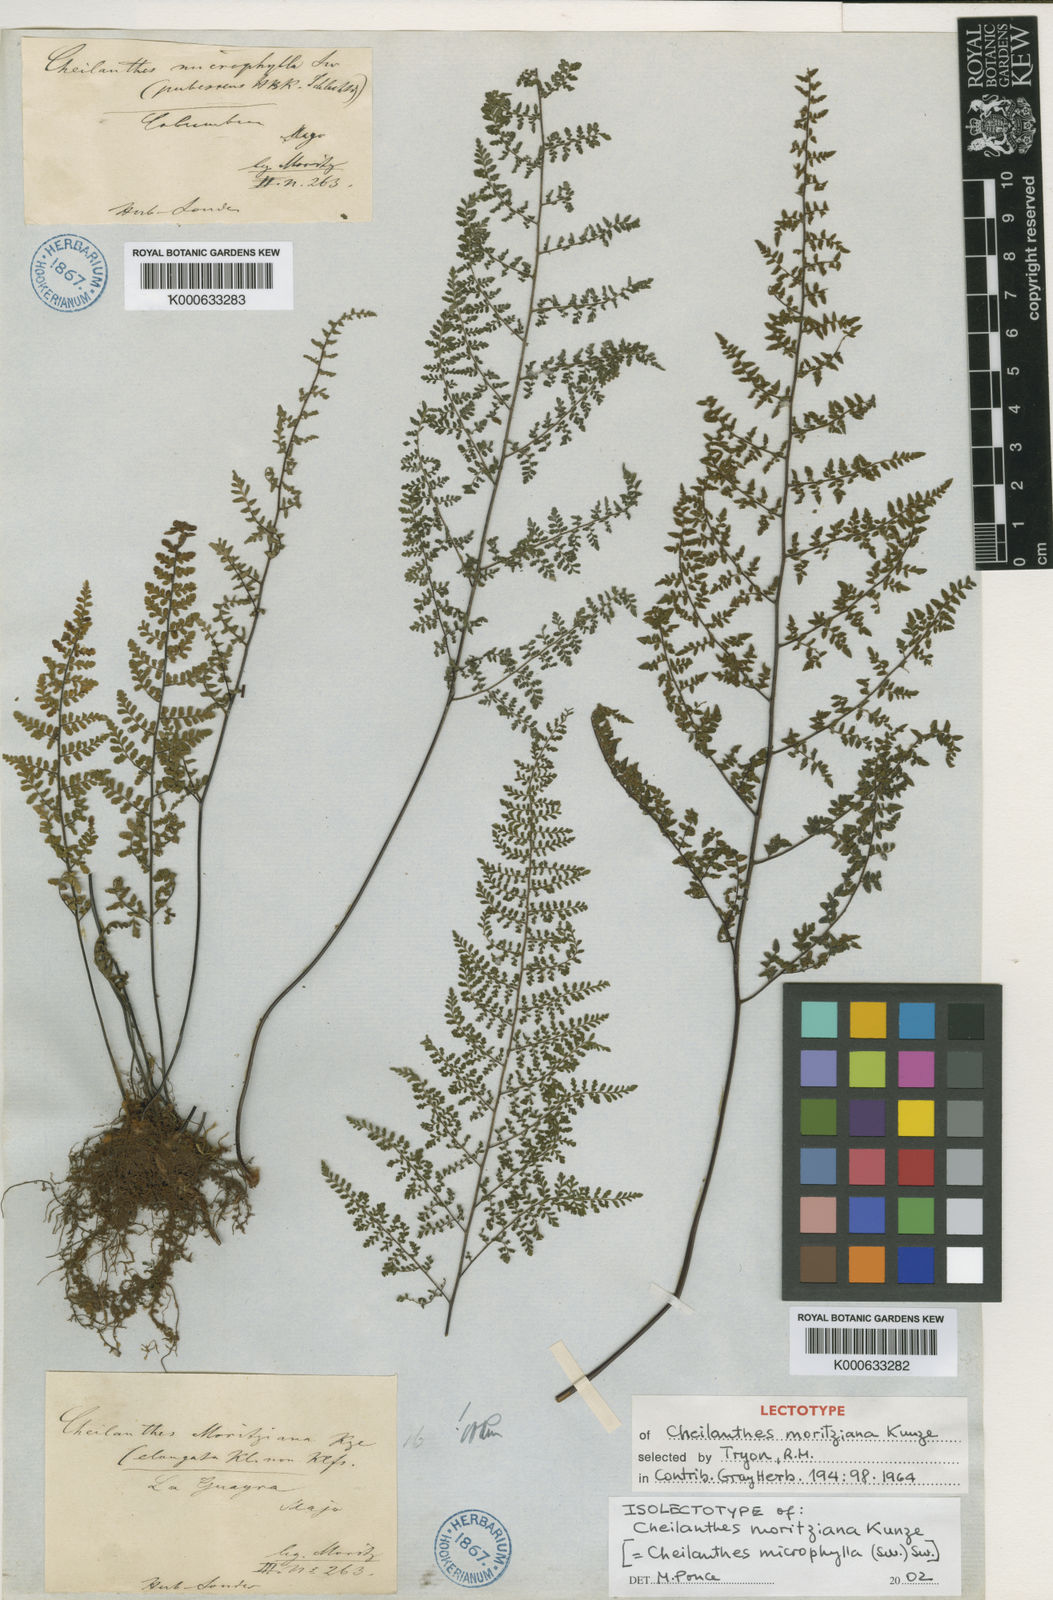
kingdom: Plantae
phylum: Tracheophyta
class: Polypodiopsida
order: Polypodiales
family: Pteridaceae
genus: Cheilanthes
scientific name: Cheilanthes
